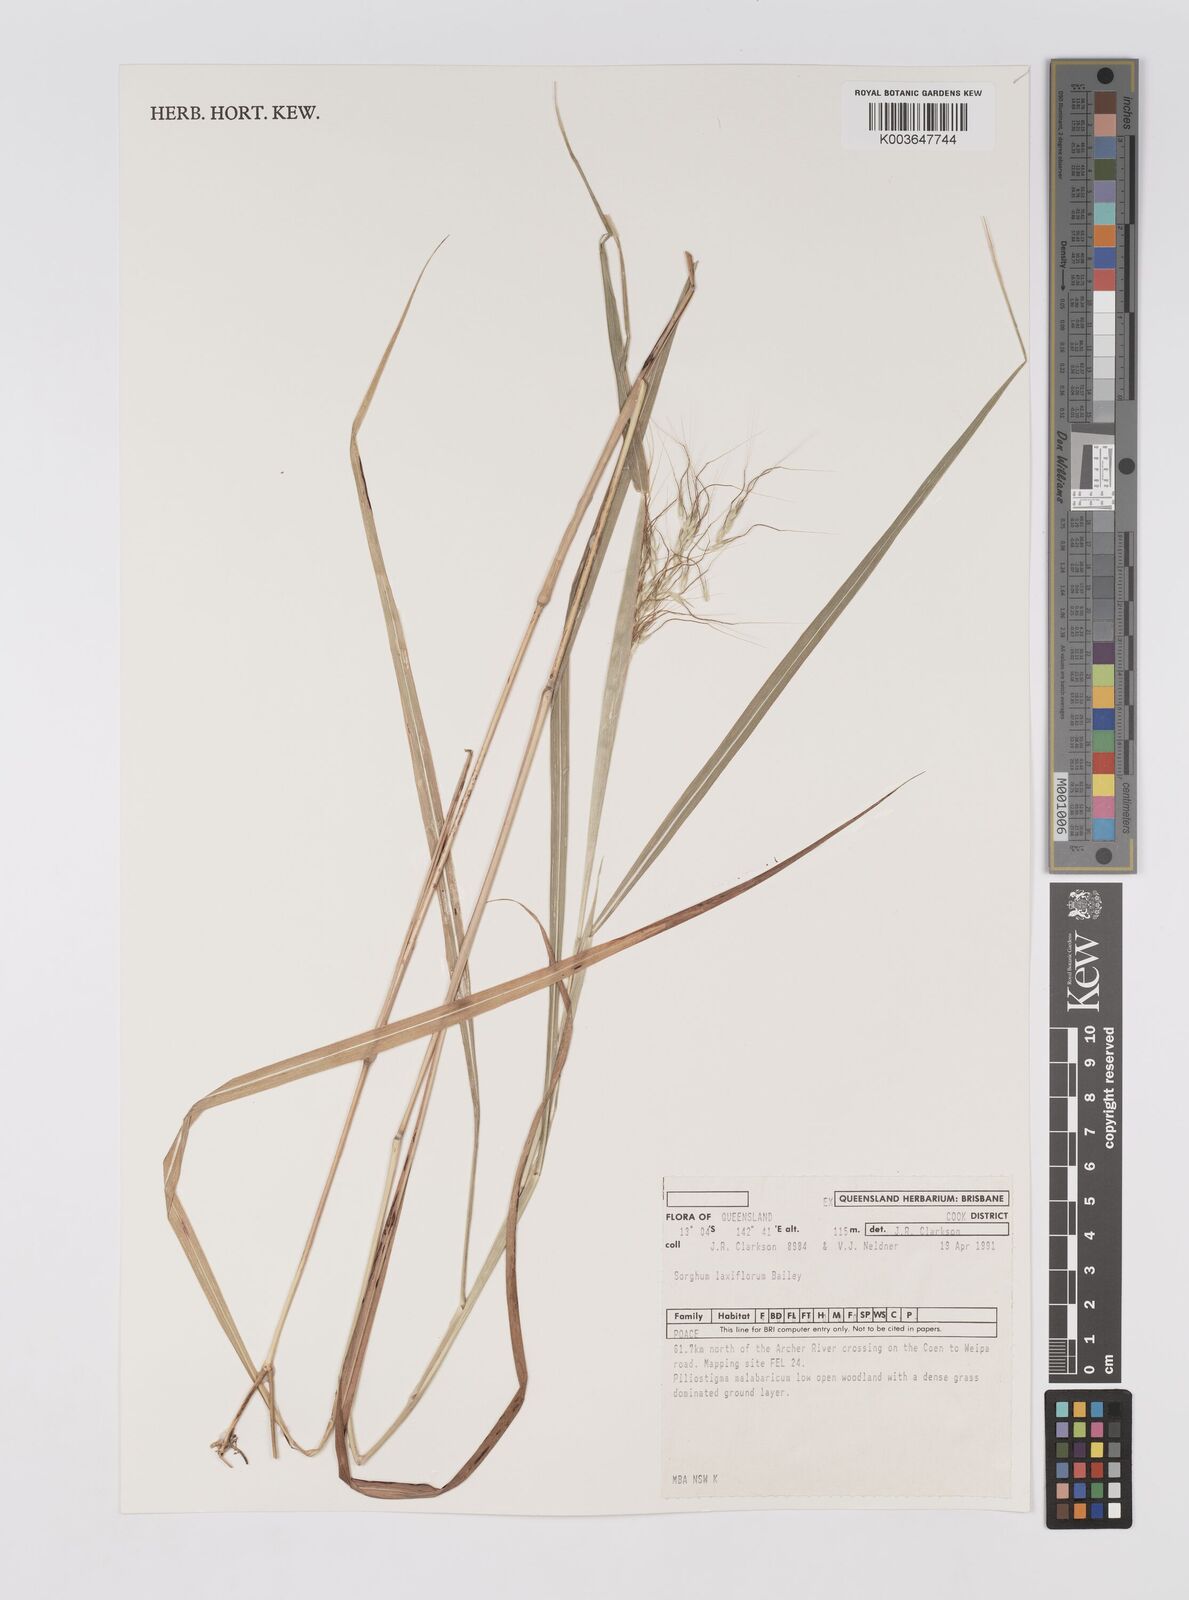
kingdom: Plantae
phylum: Tracheophyta
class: Liliopsida
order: Poales
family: Poaceae
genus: Sorghum
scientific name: Sorghum laxiflorum
